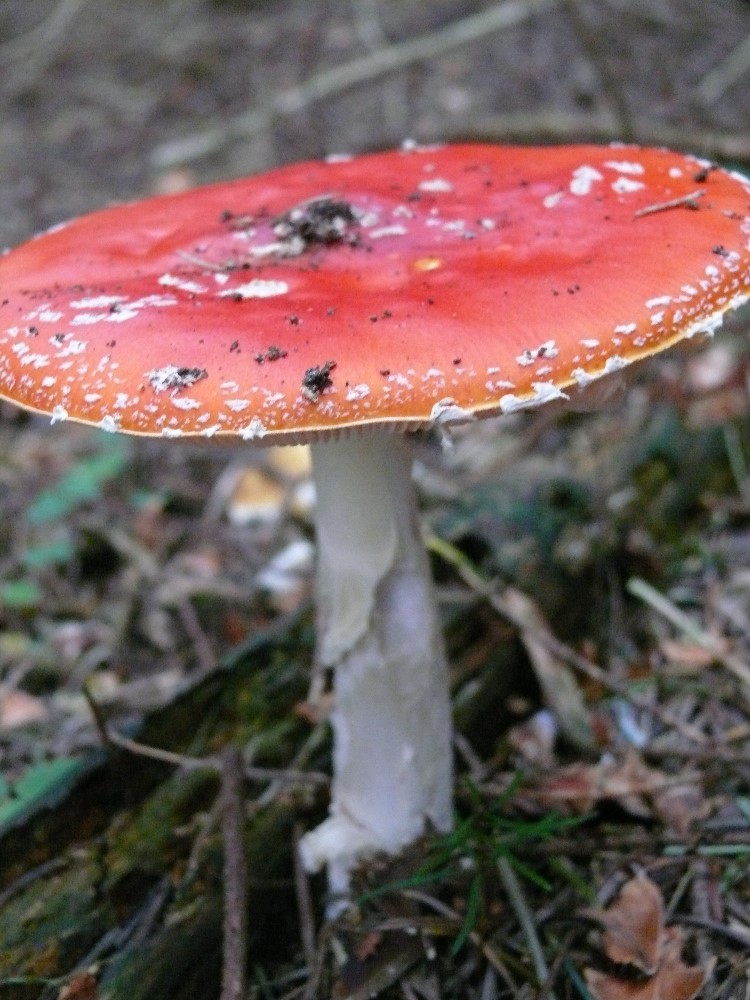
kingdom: Fungi
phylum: Basidiomycota
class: Agaricomycetes
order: Agaricales
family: Amanitaceae
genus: Amanita
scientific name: Amanita muscaria
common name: rød fluesvamp
